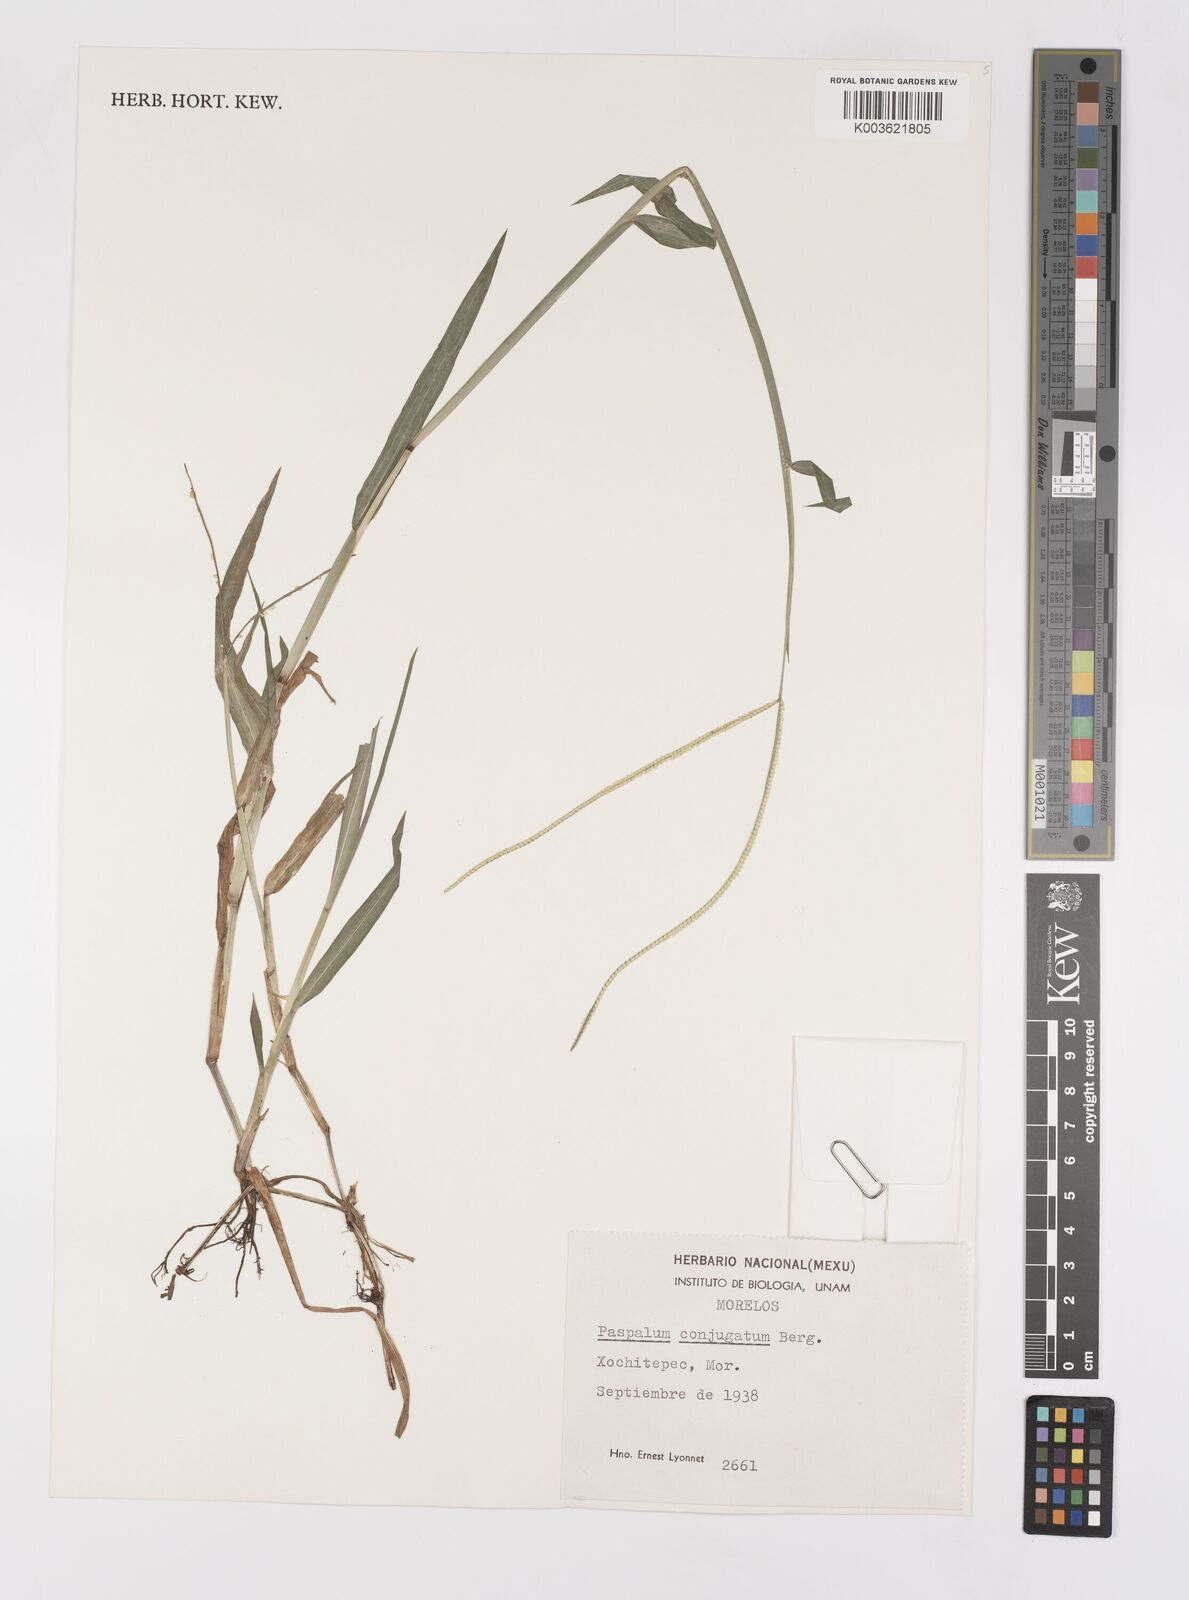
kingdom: Plantae
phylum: Tracheophyta
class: Liliopsida
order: Poales
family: Poaceae
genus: Paspalum
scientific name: Paspalum conjugatum
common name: Hilograss
